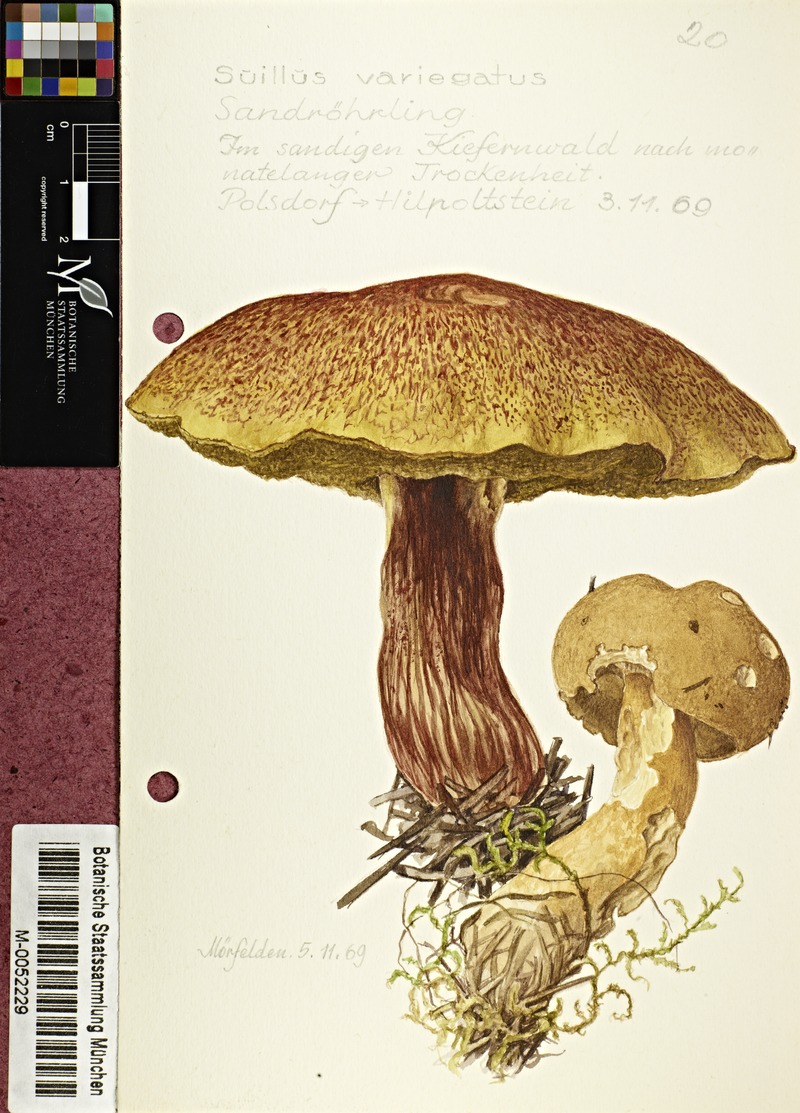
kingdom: Fungi
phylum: Basidiomycota
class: Agaricomycetes
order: Boletales
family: Suillaceae
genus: Suillus
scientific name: Suillus variegatus
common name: Velvet bolete
